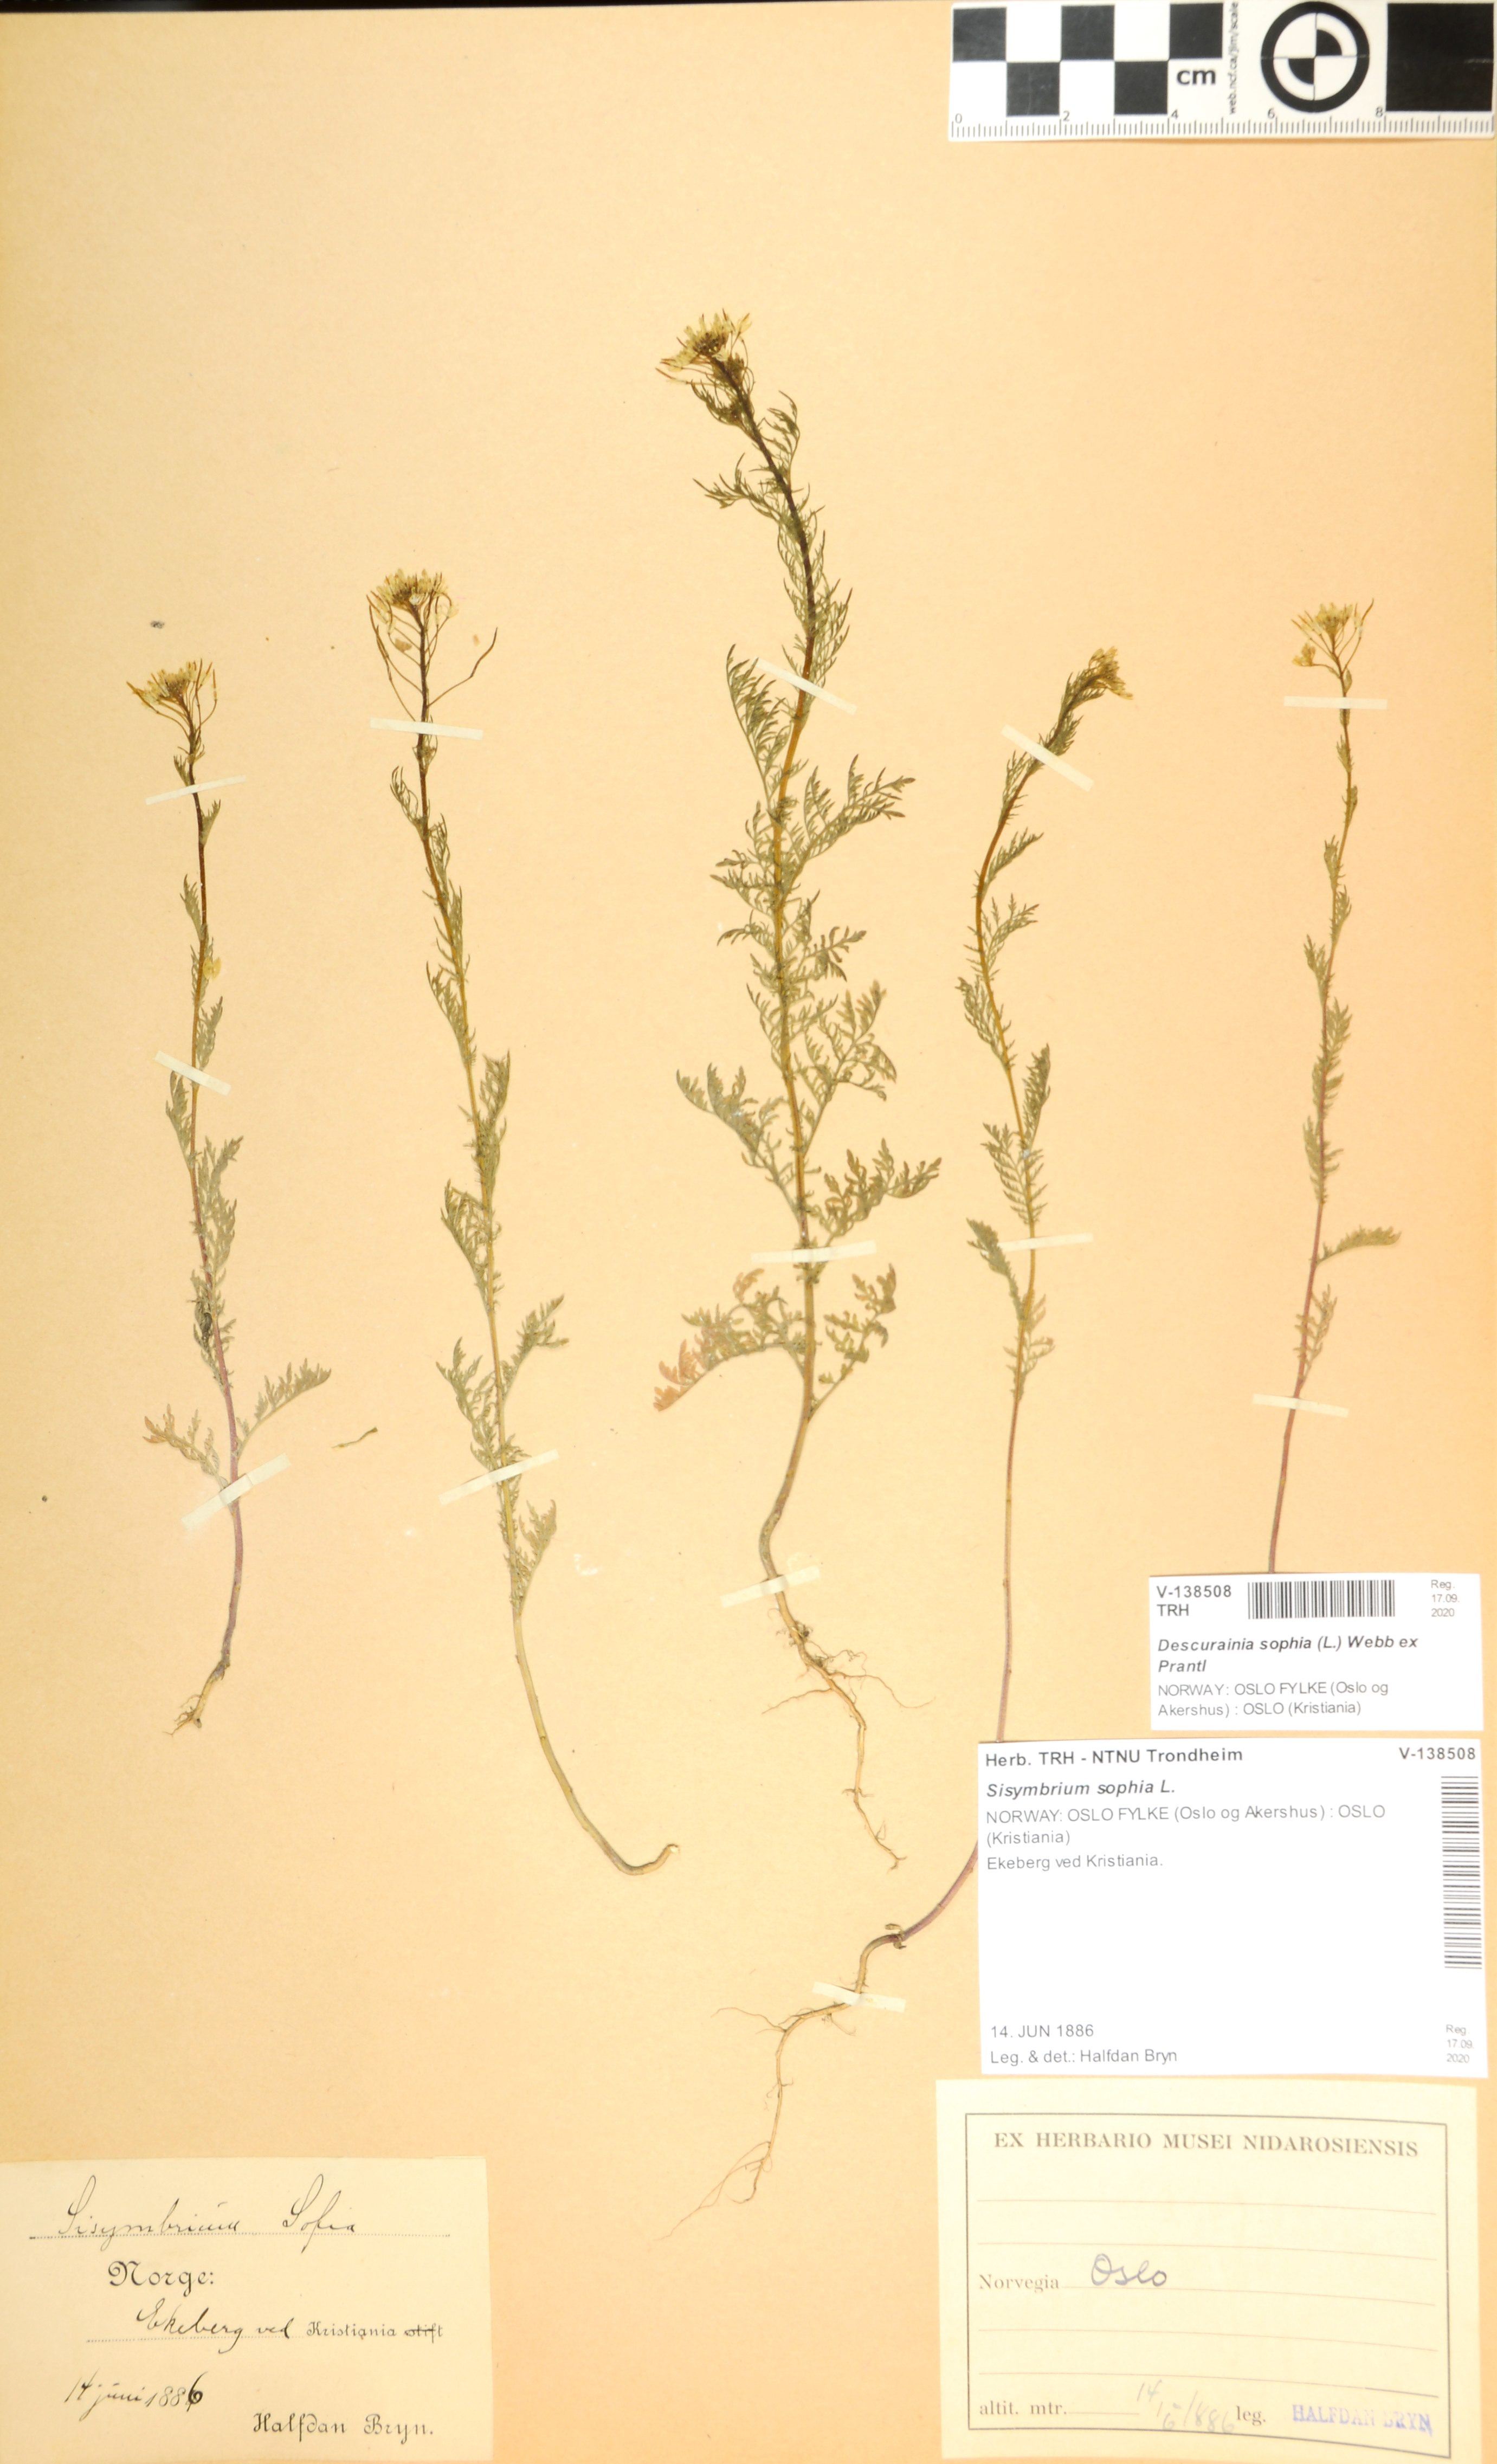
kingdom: Plantae
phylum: Tracheophyta
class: Magnoliopsida
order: Brassicales
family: Brassicaceae
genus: Descurainia
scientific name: Descurainia sophia
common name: Flixweed
